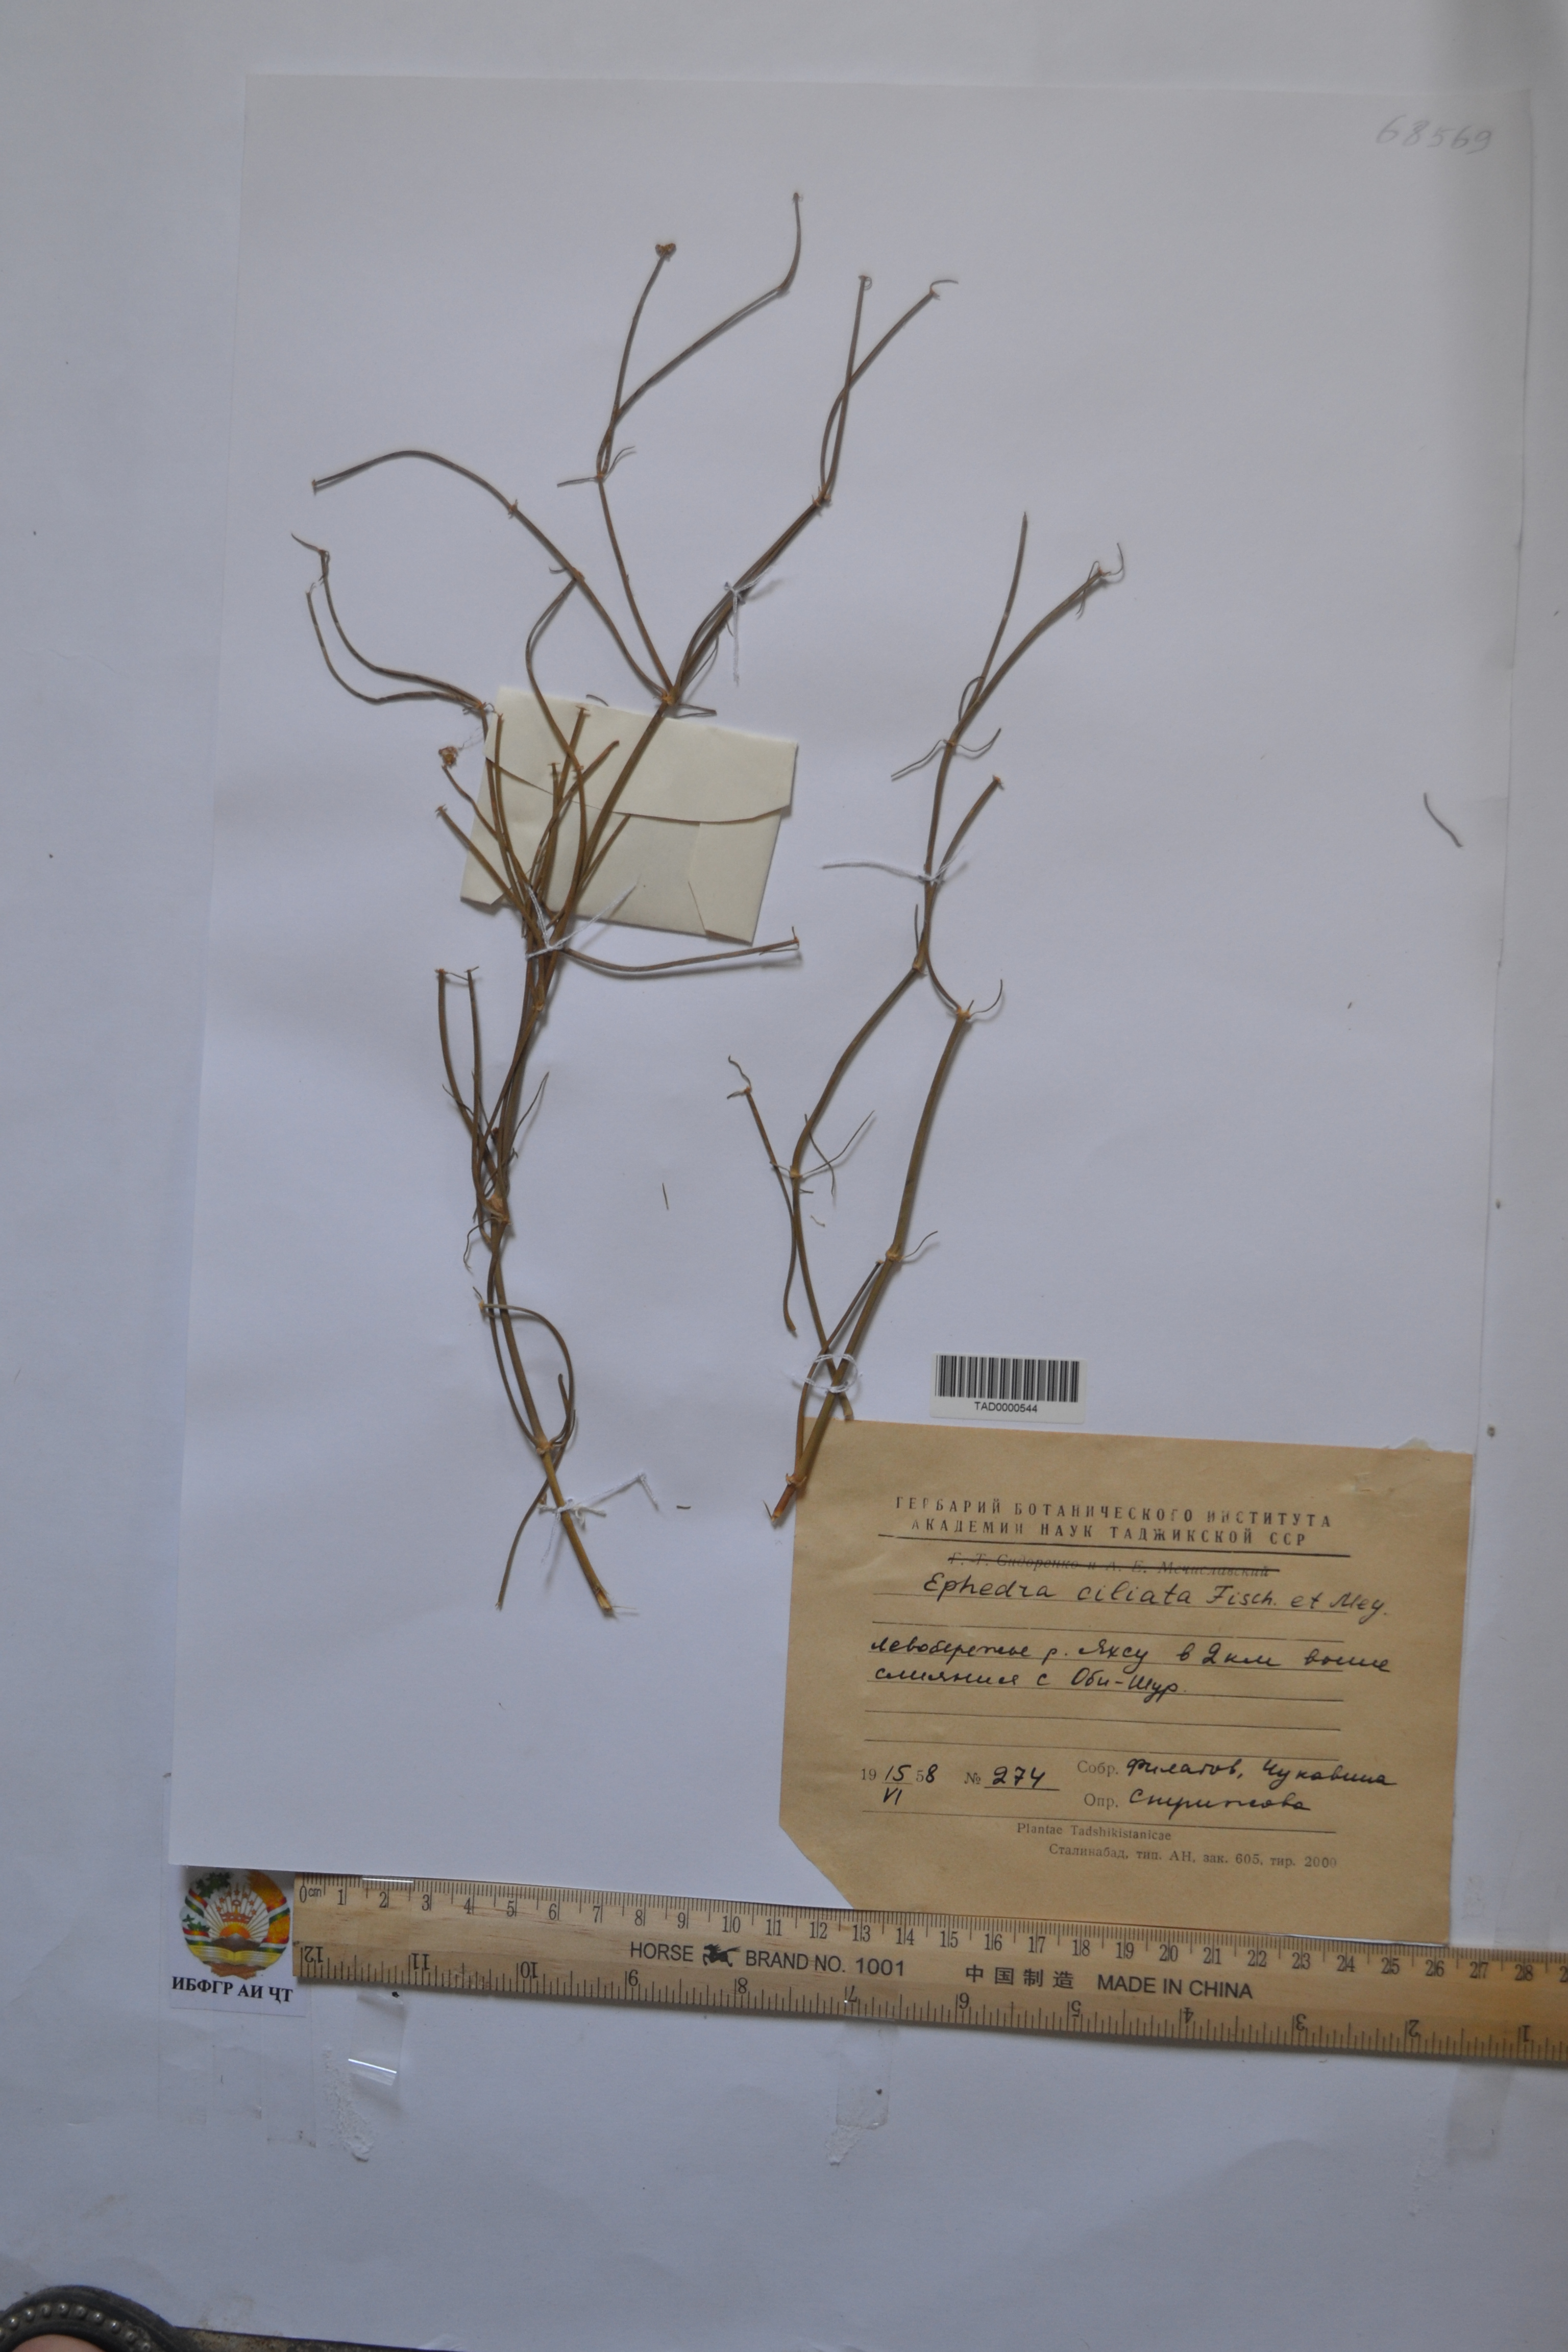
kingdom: Plantae
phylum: Tracheophyta
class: Gnetopsida
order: Ephedrales
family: Ephedraceae
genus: Ephedra
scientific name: Ephedra ciliata
